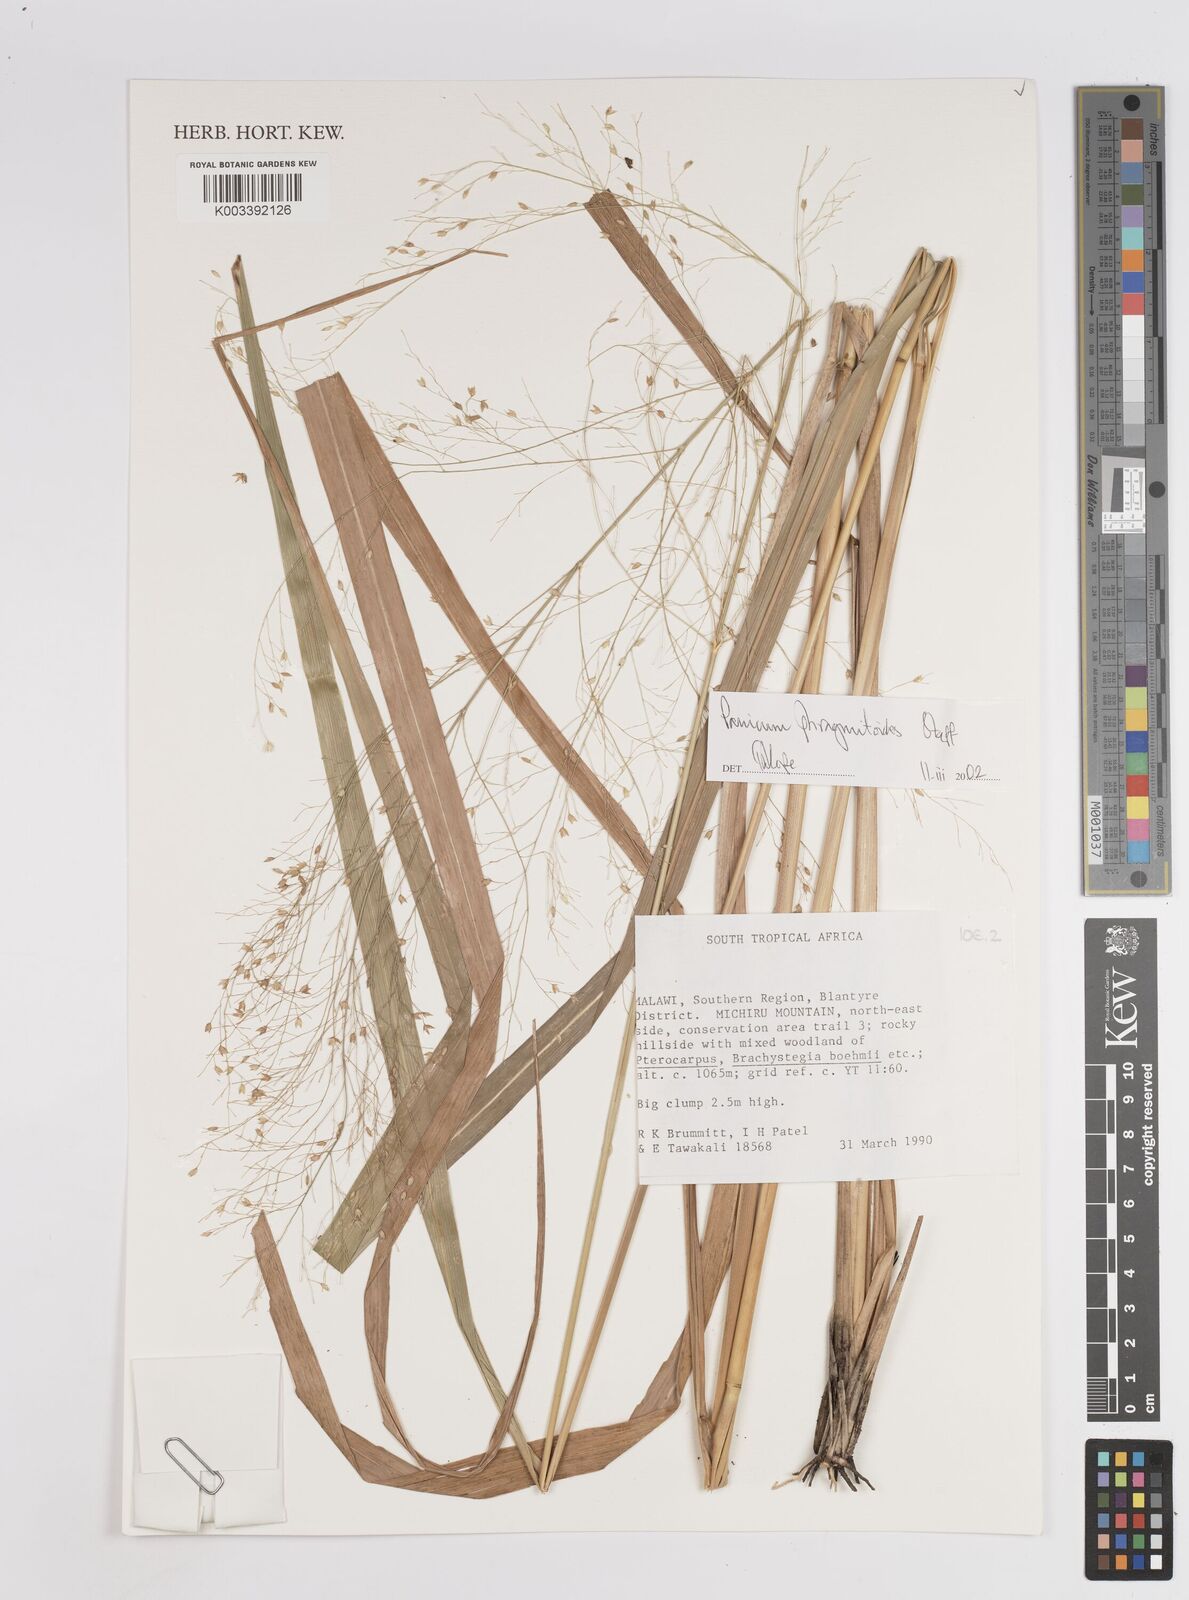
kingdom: Plantae
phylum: Tracheophyta
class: Liliopsida
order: Poales
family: Poaceae
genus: Panicum
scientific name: Panicum phragmitoides
